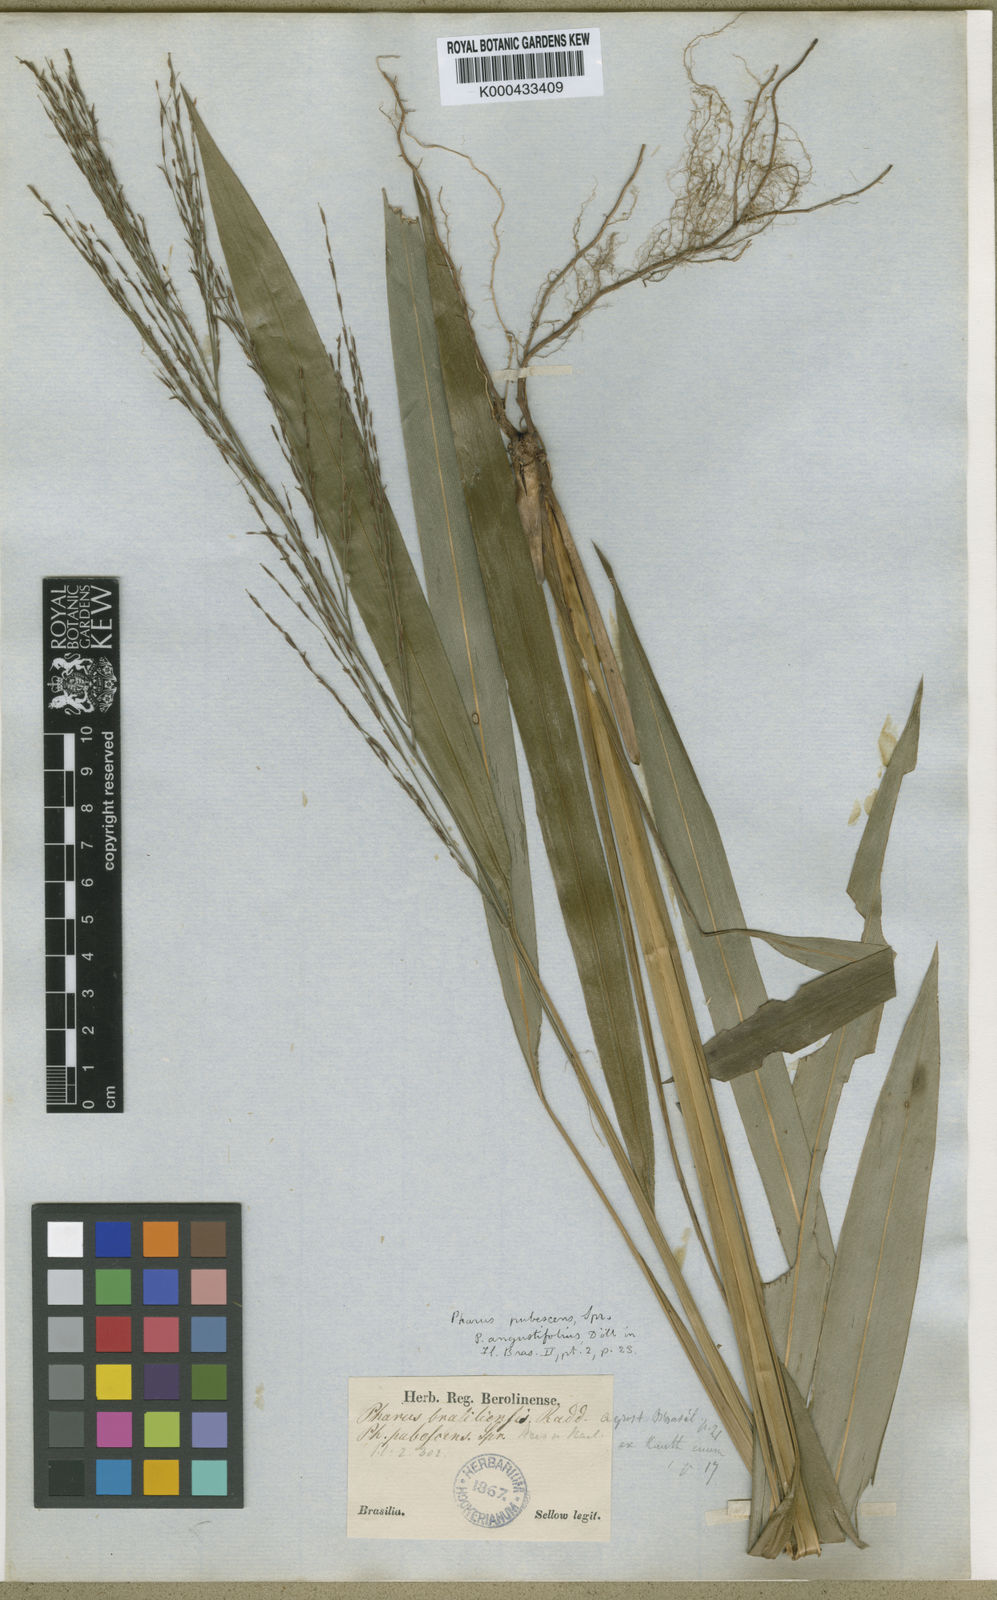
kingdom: Plantae
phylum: Tracheophyta
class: Liliopsida
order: Poales
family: Poaceae
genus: Pharus
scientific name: Pharus lappulaceus
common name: Creeping leafstalk grass
